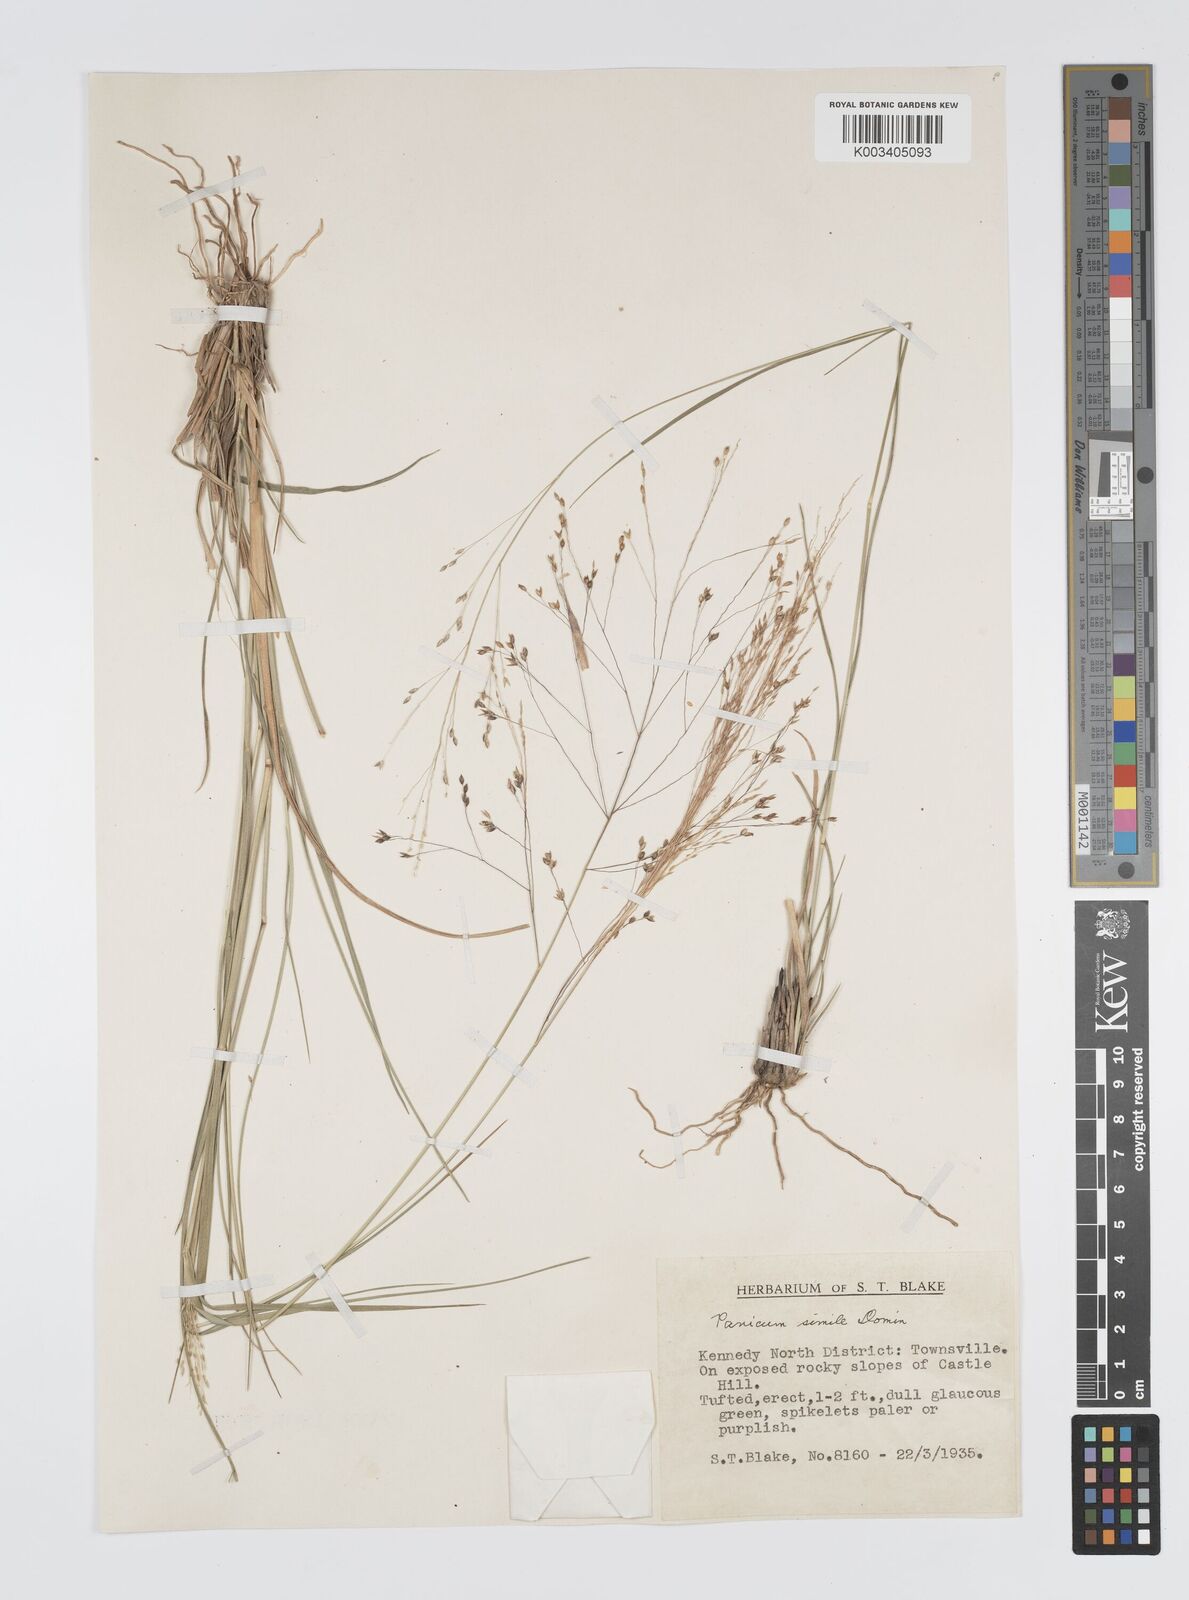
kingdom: Plantae
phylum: Tracheophyta
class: Liliopsida
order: Poales
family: Poaceae
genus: Panicum
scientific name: Panicum simile
